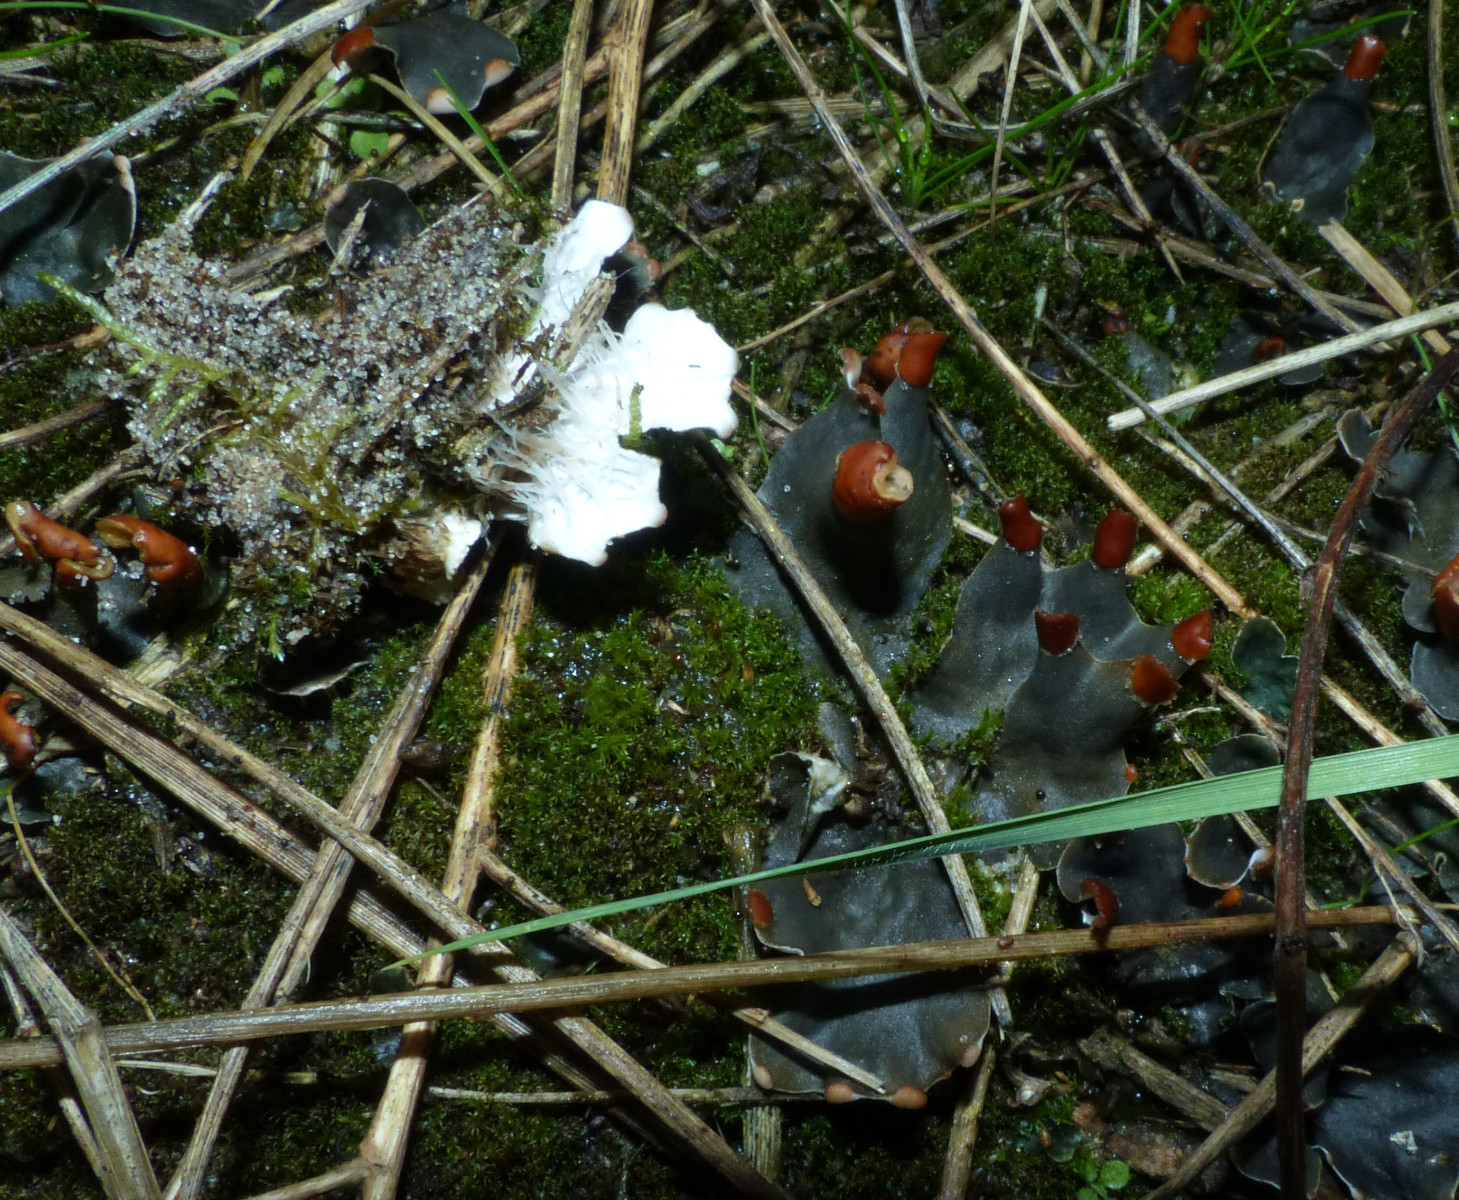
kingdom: Fungi
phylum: Ascomycota
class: Lecanoromycetes
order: Peltigerales
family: Peltigeraceae
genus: Peltigera
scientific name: Peltigera didactyla
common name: liden skjoldlav
